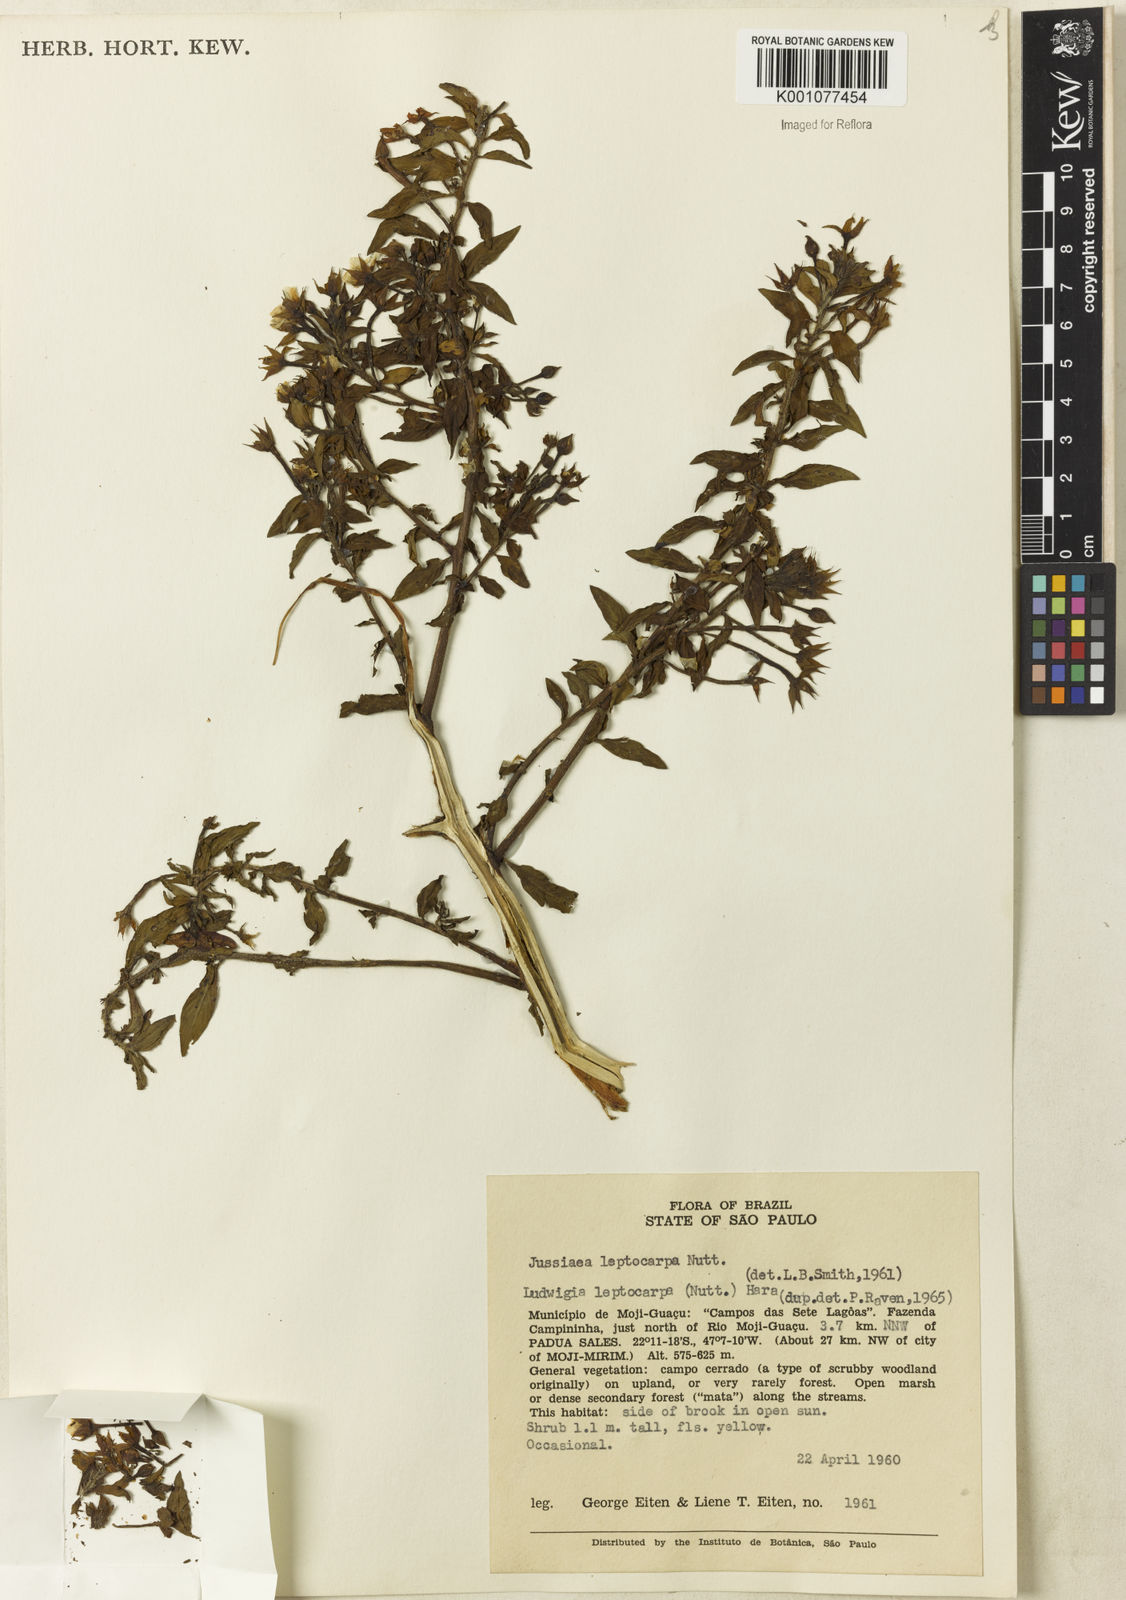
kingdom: Plantae
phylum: Tracheophyta
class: Magnoliopsida
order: Myrtales
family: Onagraceae
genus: Ludwigia
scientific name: Ludwigia leptocarpa
